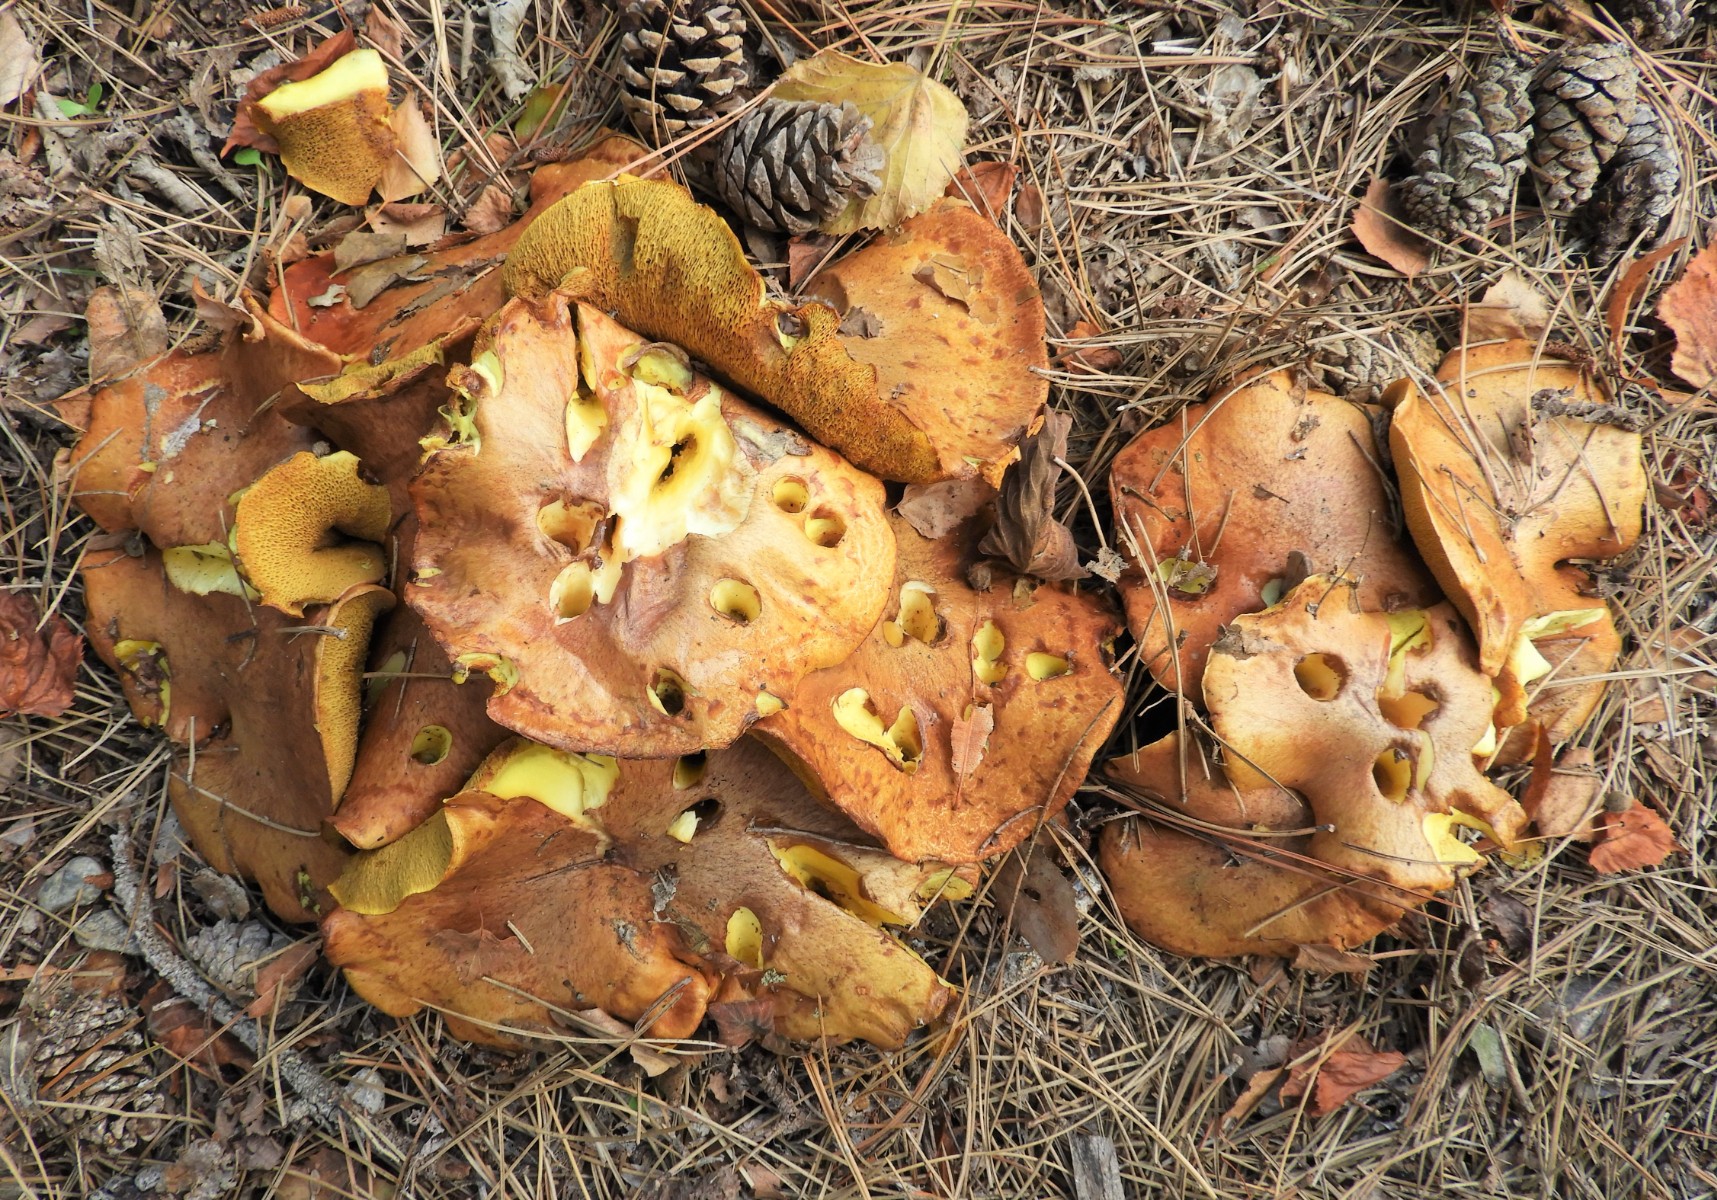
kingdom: Fungi
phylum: Basidiomycota
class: Agaricomycetes
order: Boletales
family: Suillaceae
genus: Suillus
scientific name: Suillus luteus
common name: brungul slimrørhat
